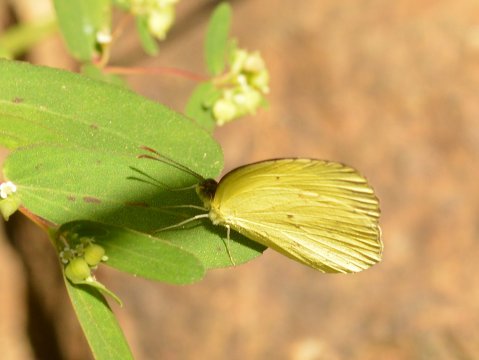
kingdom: Animalia
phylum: Arthropoda
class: Insecta
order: Lepidoptera
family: Pieridae
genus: Pyrisitia
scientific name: Pyrisitia nise
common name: Mimosa Yellow
